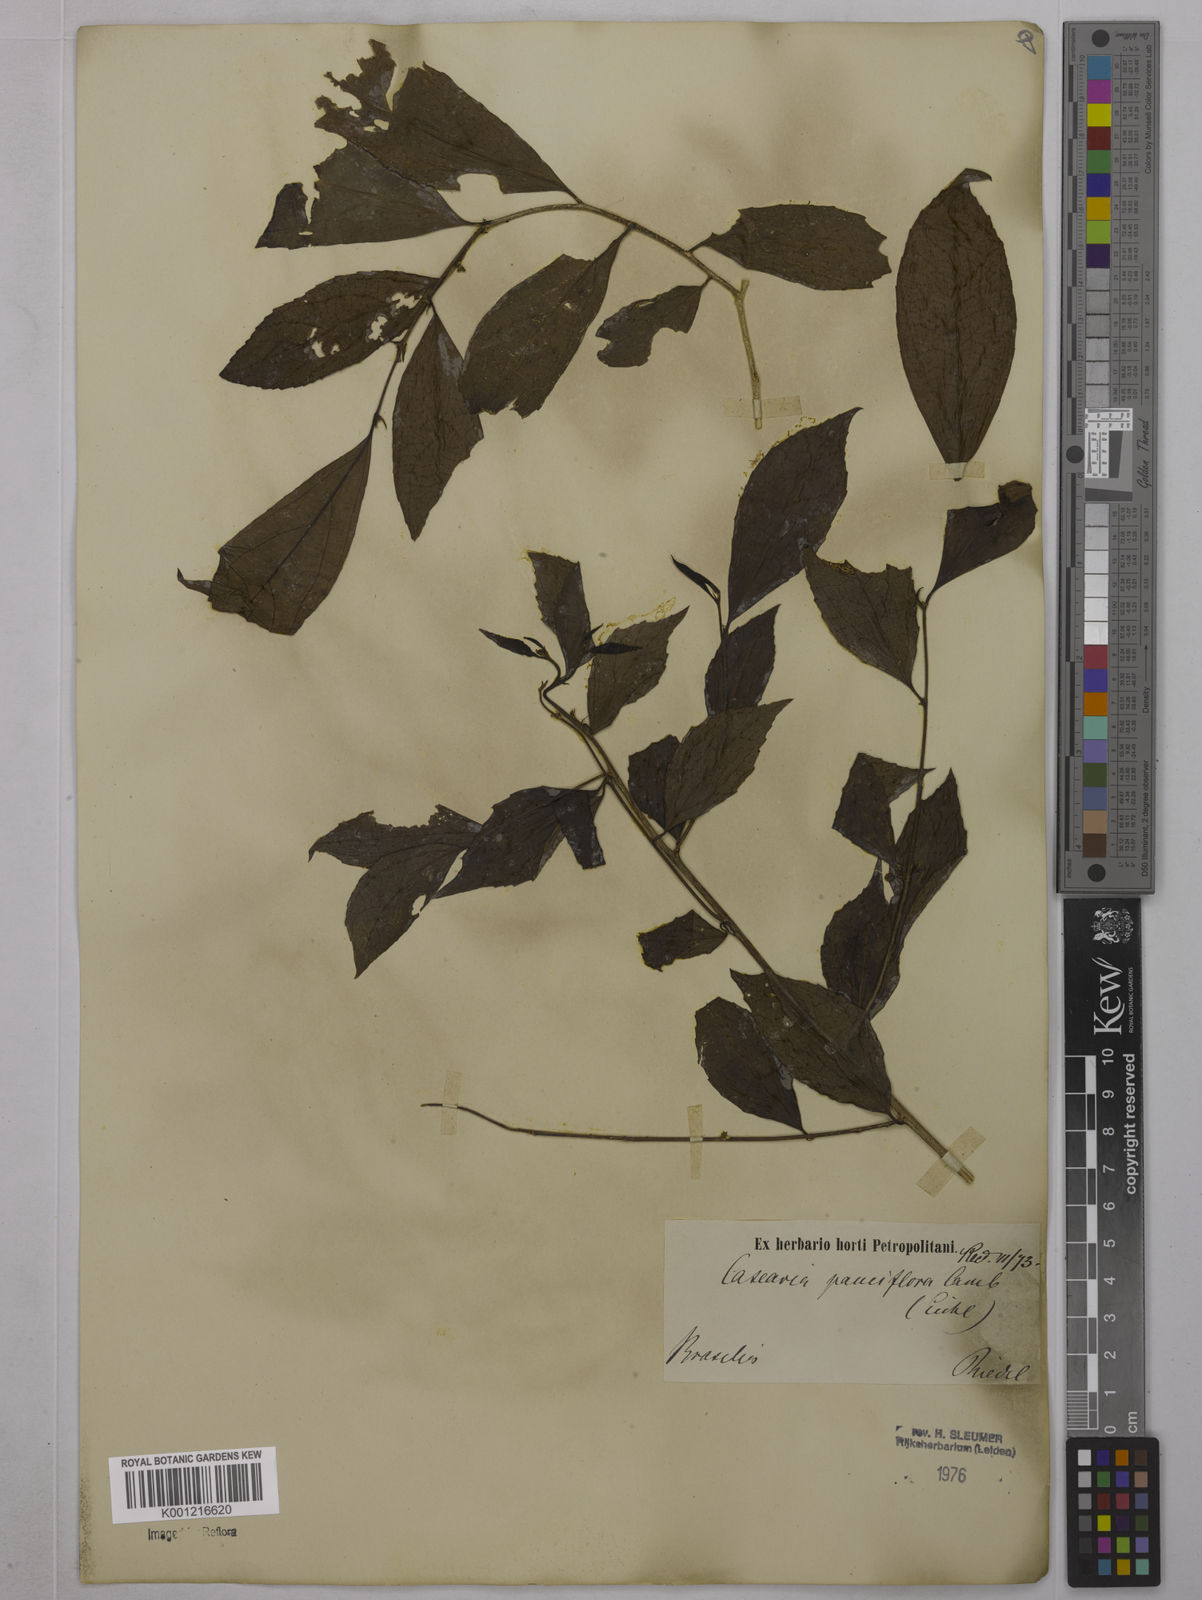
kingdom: Plantae
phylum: Tracheophyta
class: Magnoliopsida
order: Malpighiales
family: Salicaceae
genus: Casearia
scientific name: Casearia pauciflora
